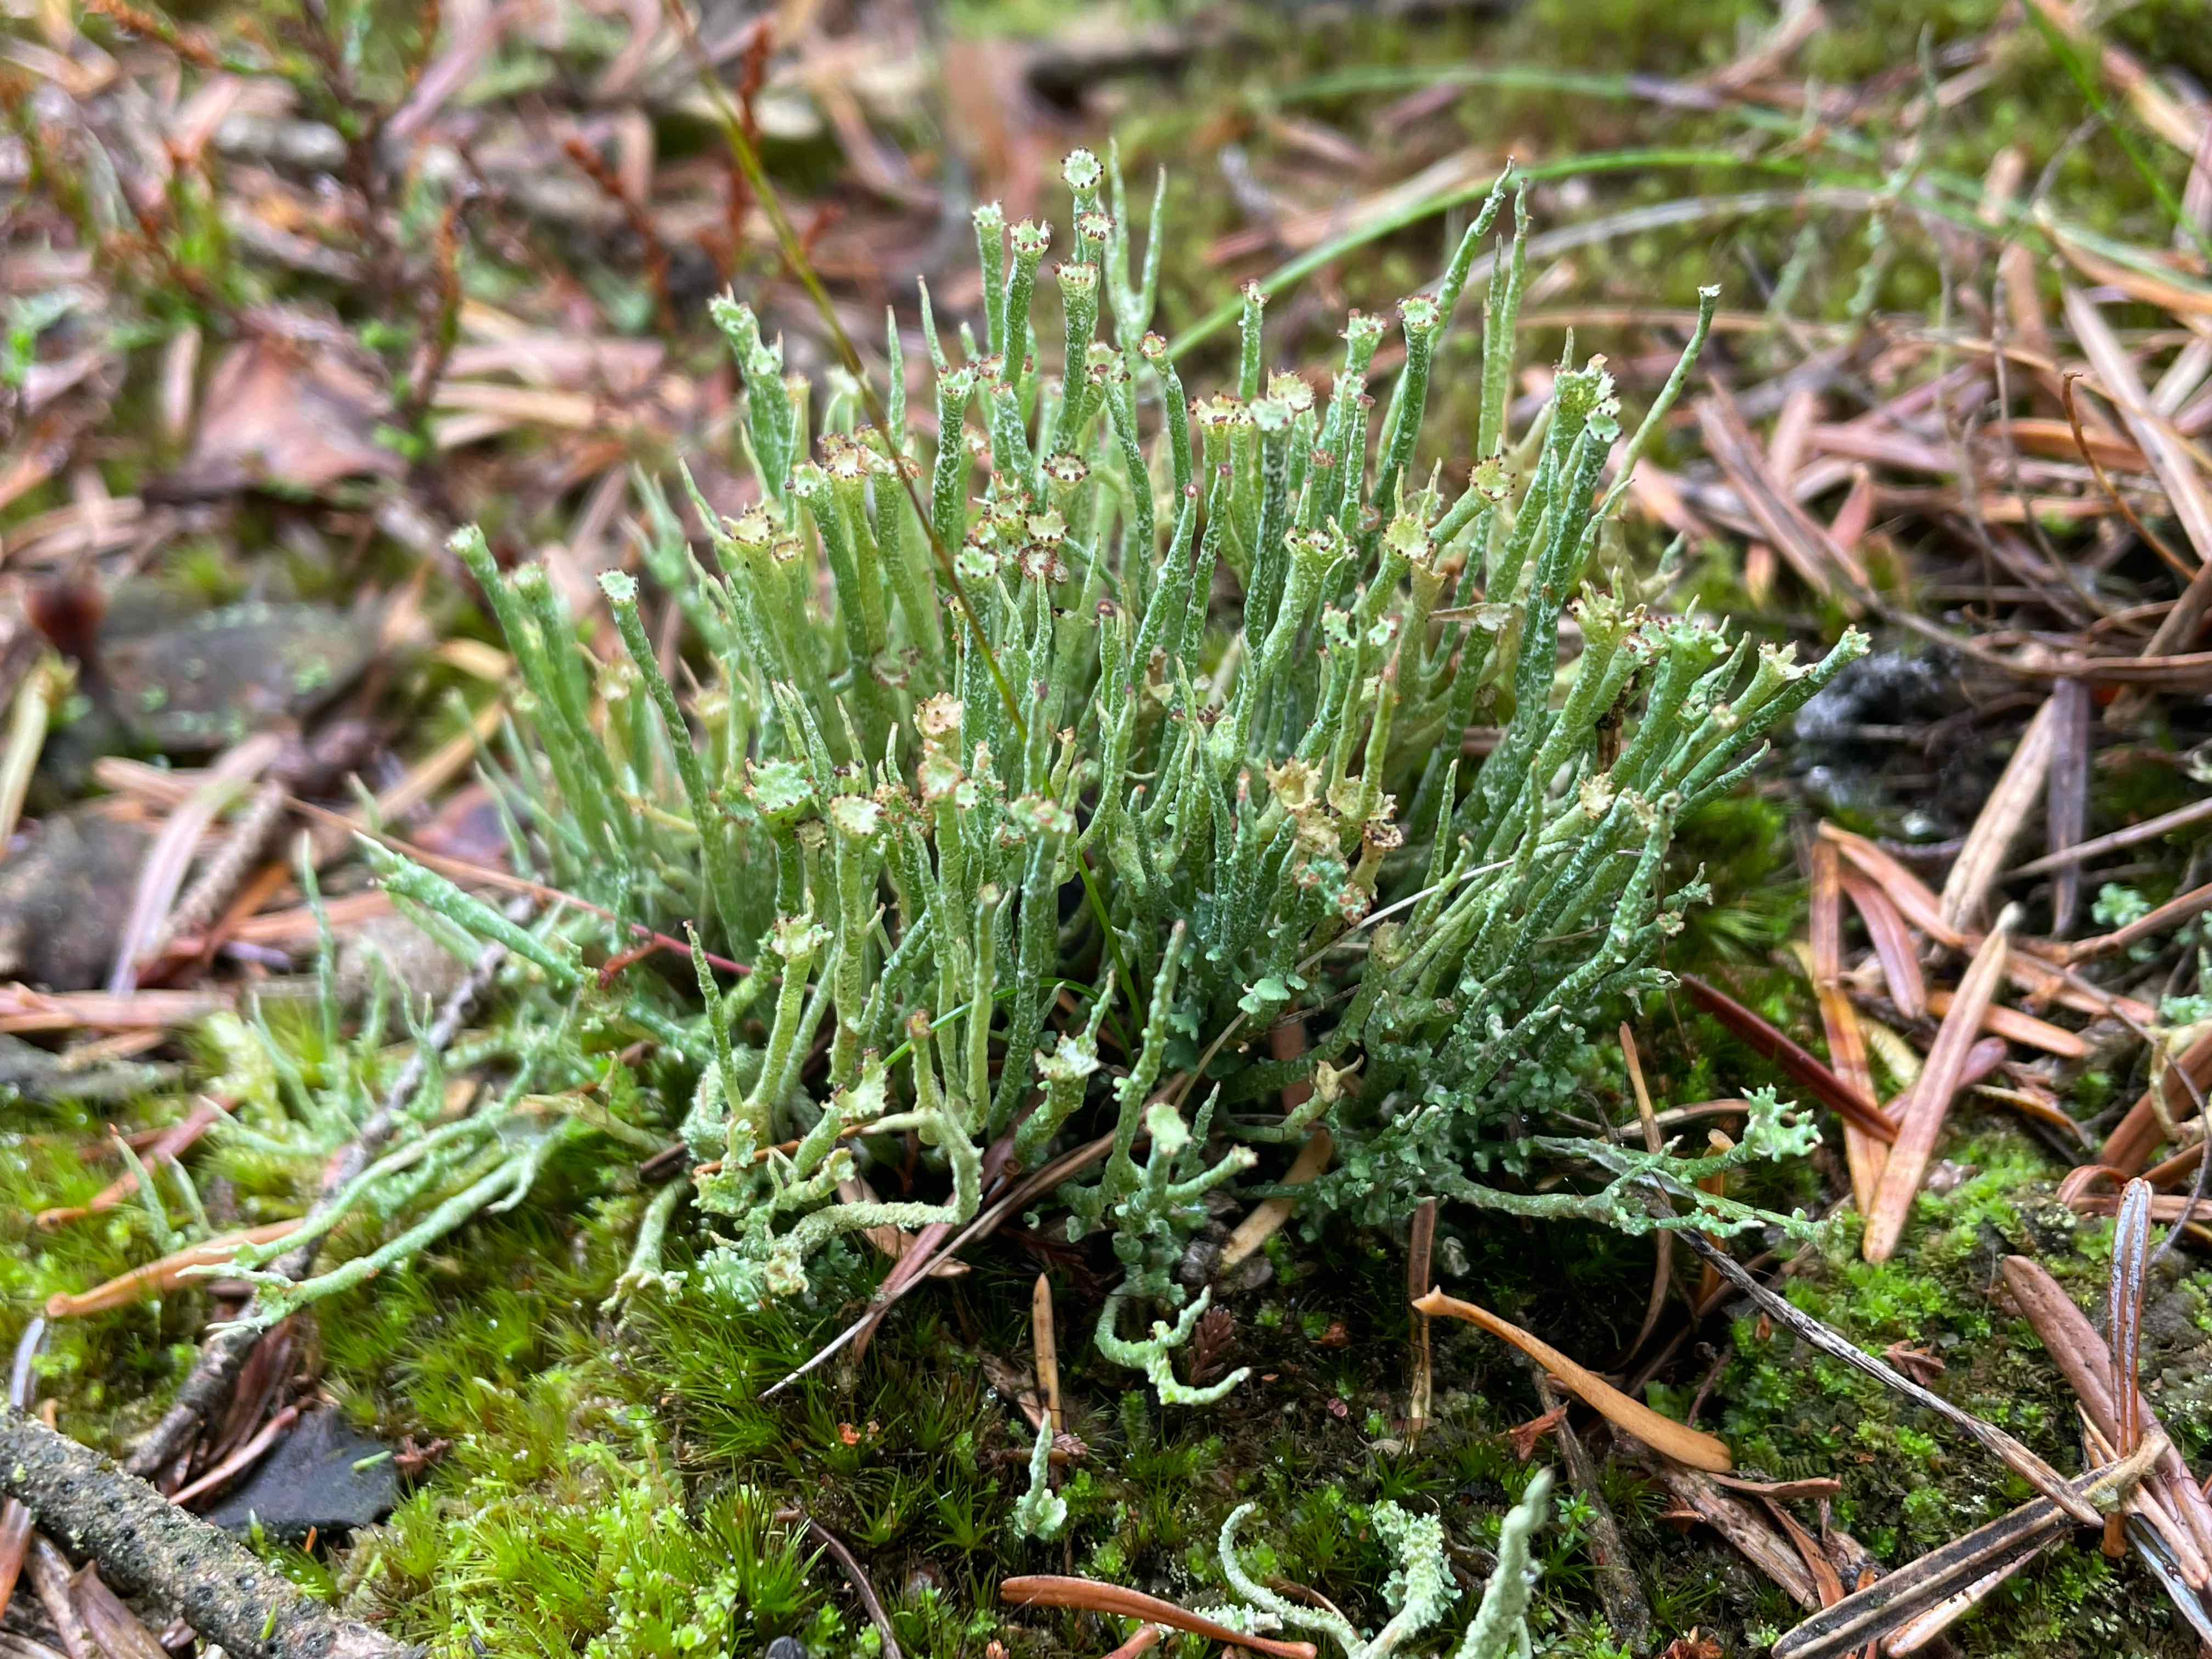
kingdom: Fungi
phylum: Ascomycota
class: Lecanoromycetes
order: Lecanorales
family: Cladoniaceae
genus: Cladonia
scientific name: Cladonia gracilis
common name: slank bægerlav
